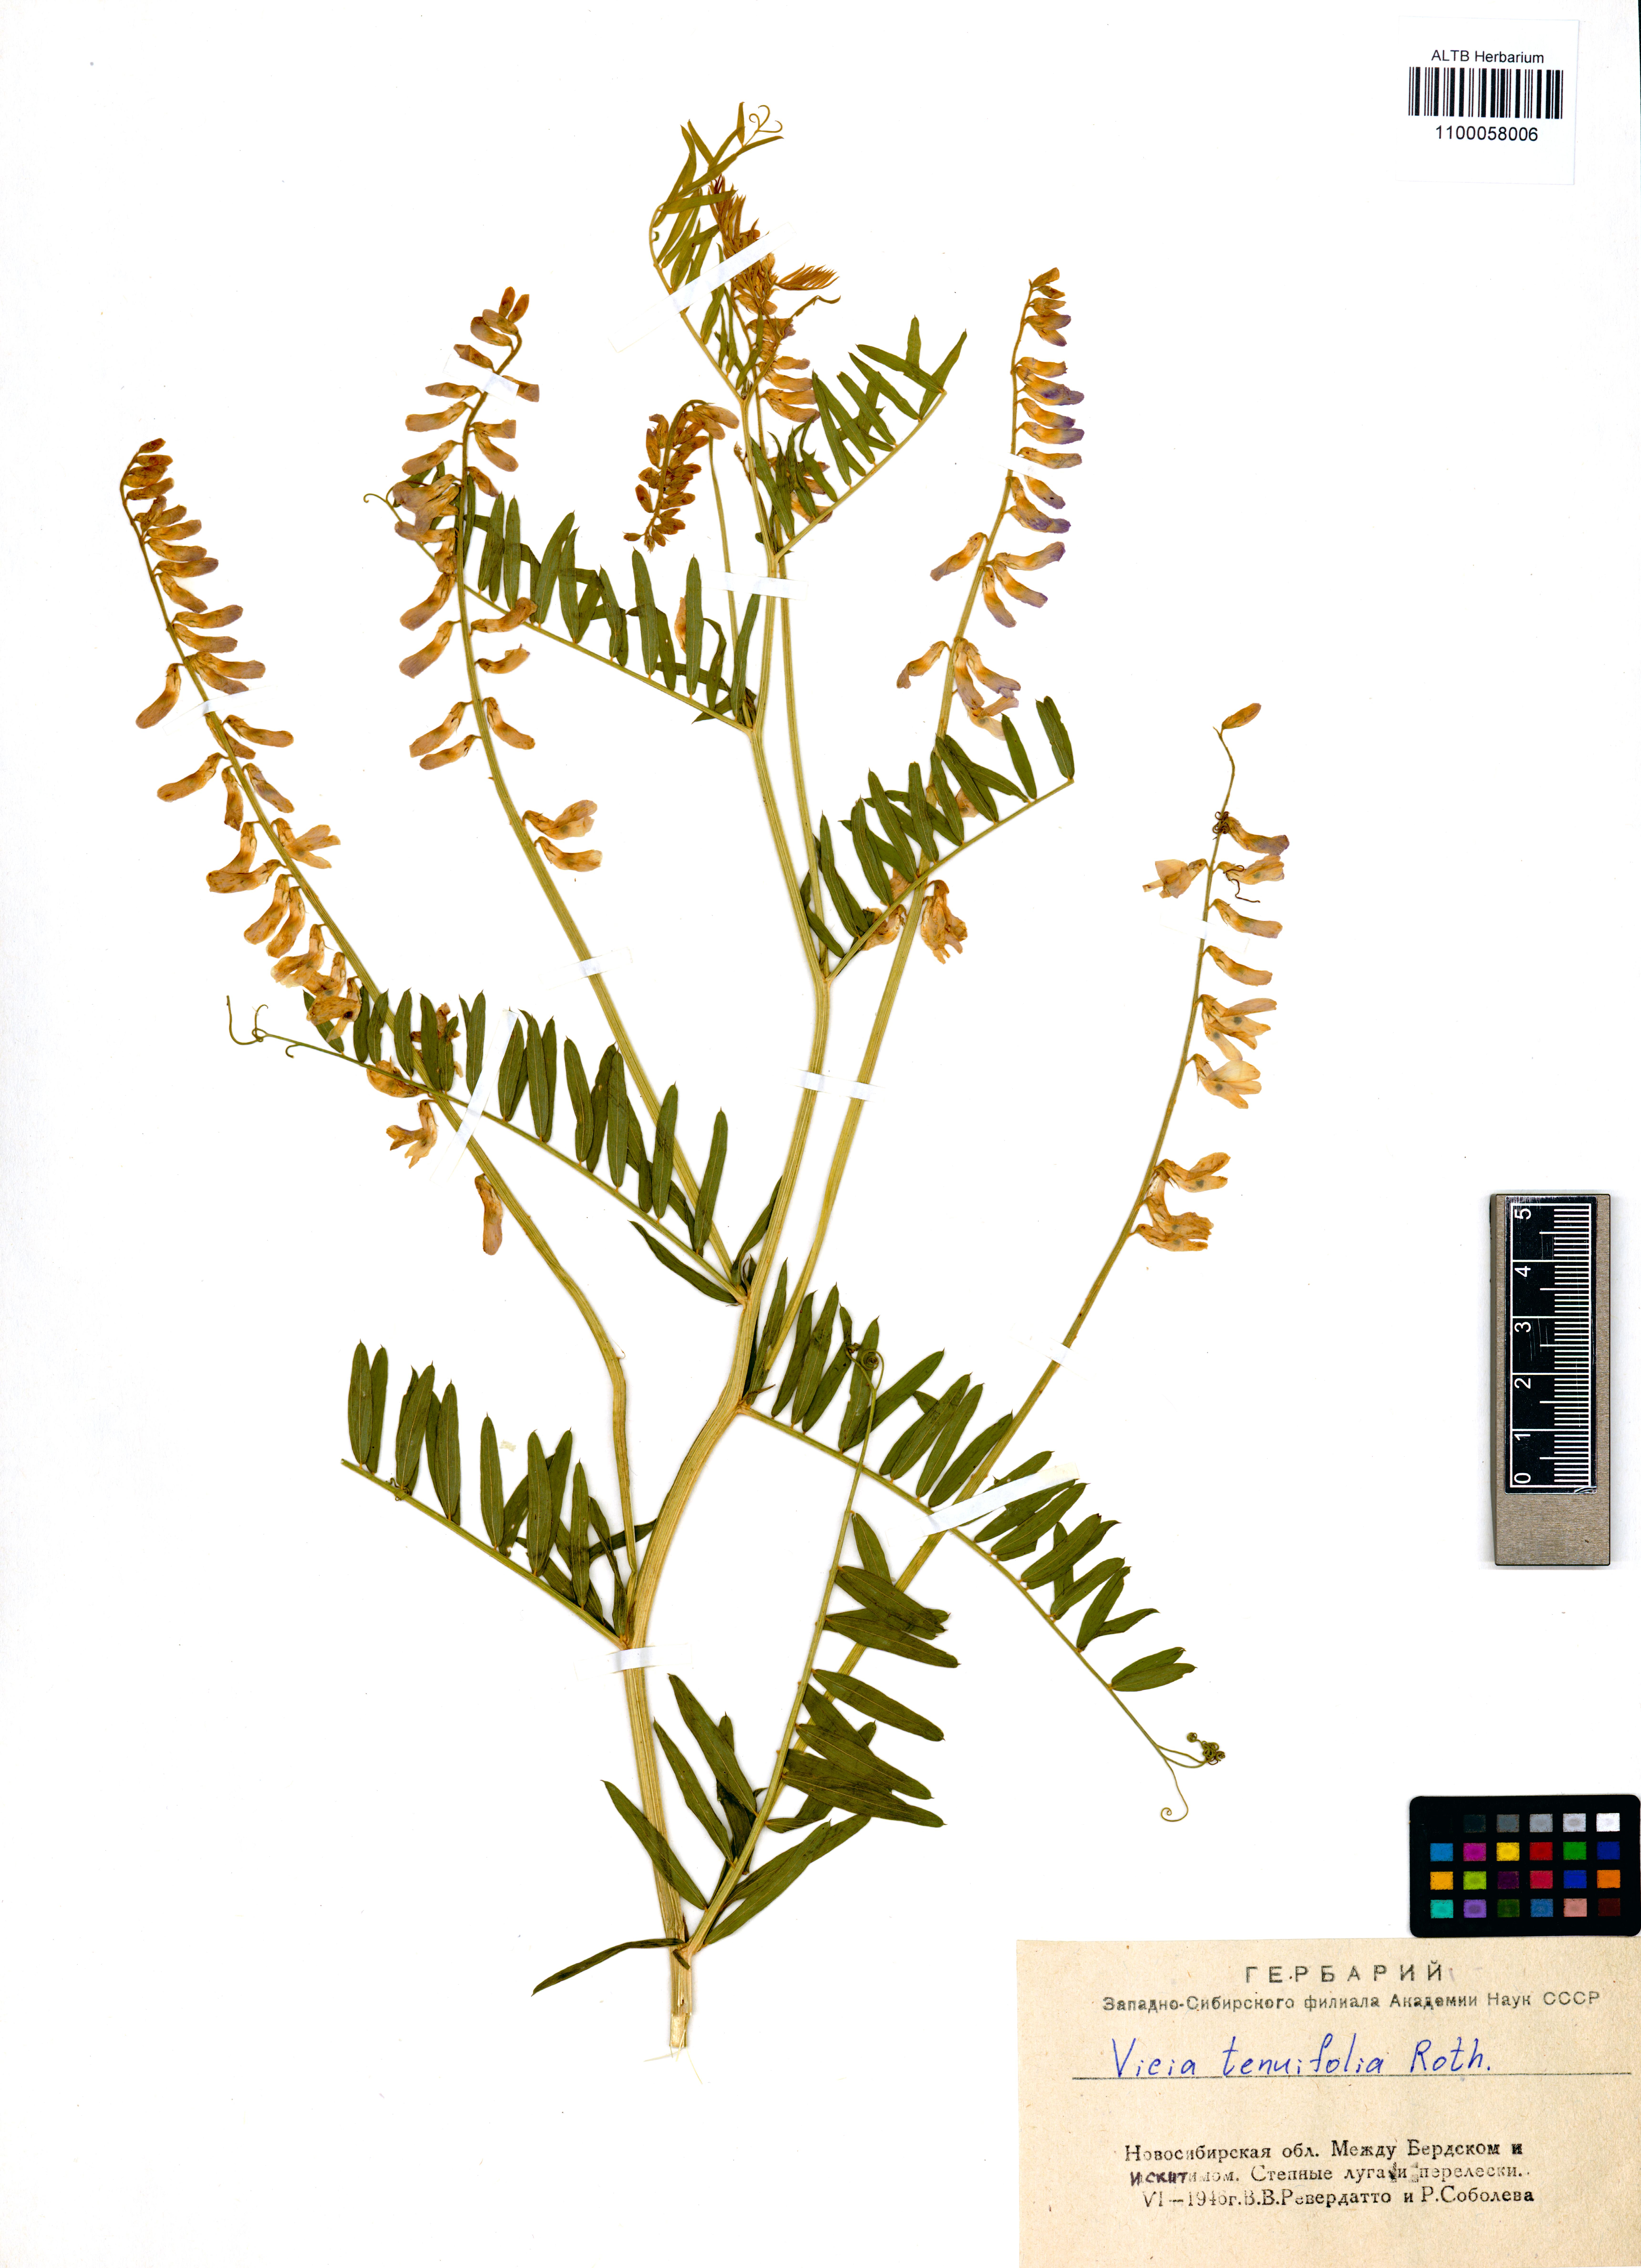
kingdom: Plantae
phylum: Tracheophyta
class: Magnoliopsida
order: Fabales
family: Fabaceae
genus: Vicia
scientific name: Vicia tenuifolia
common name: Fine-leaved vetch
